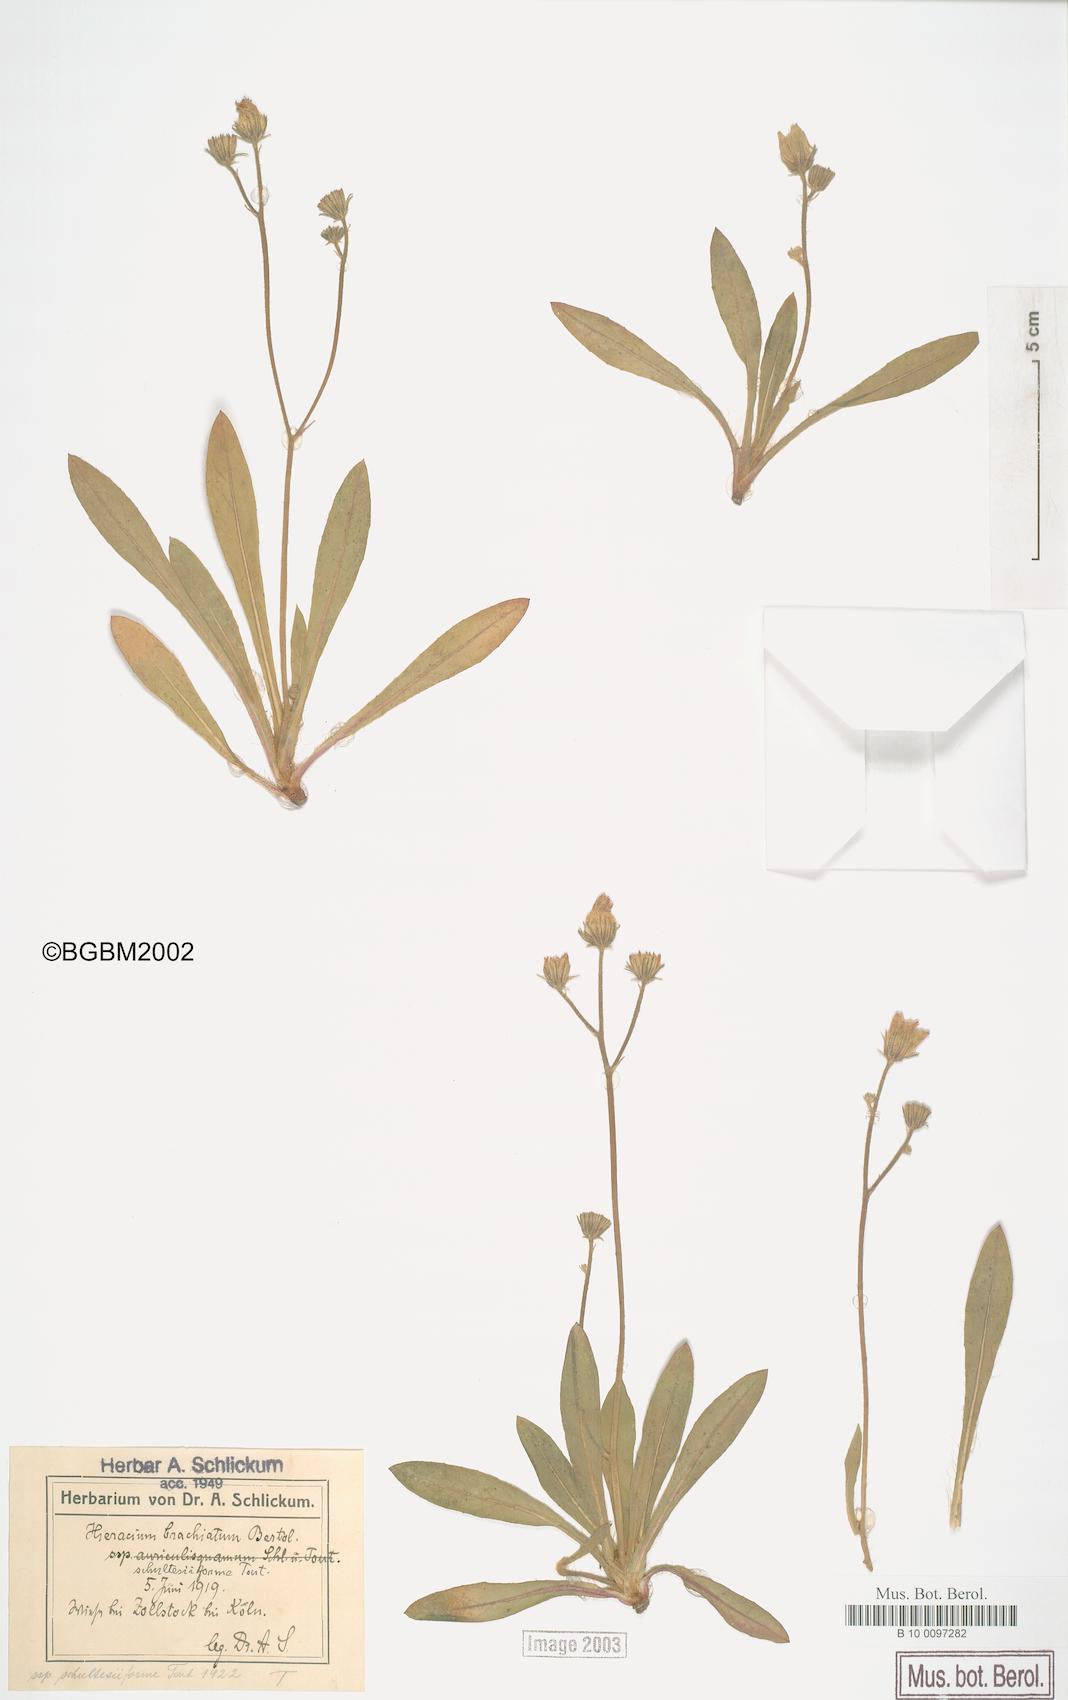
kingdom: Plantae
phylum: Tracheophyta
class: Magnoliopsida
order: Asterales
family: Asteraceae
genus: Pilosella
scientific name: Pilosella acutifolia
